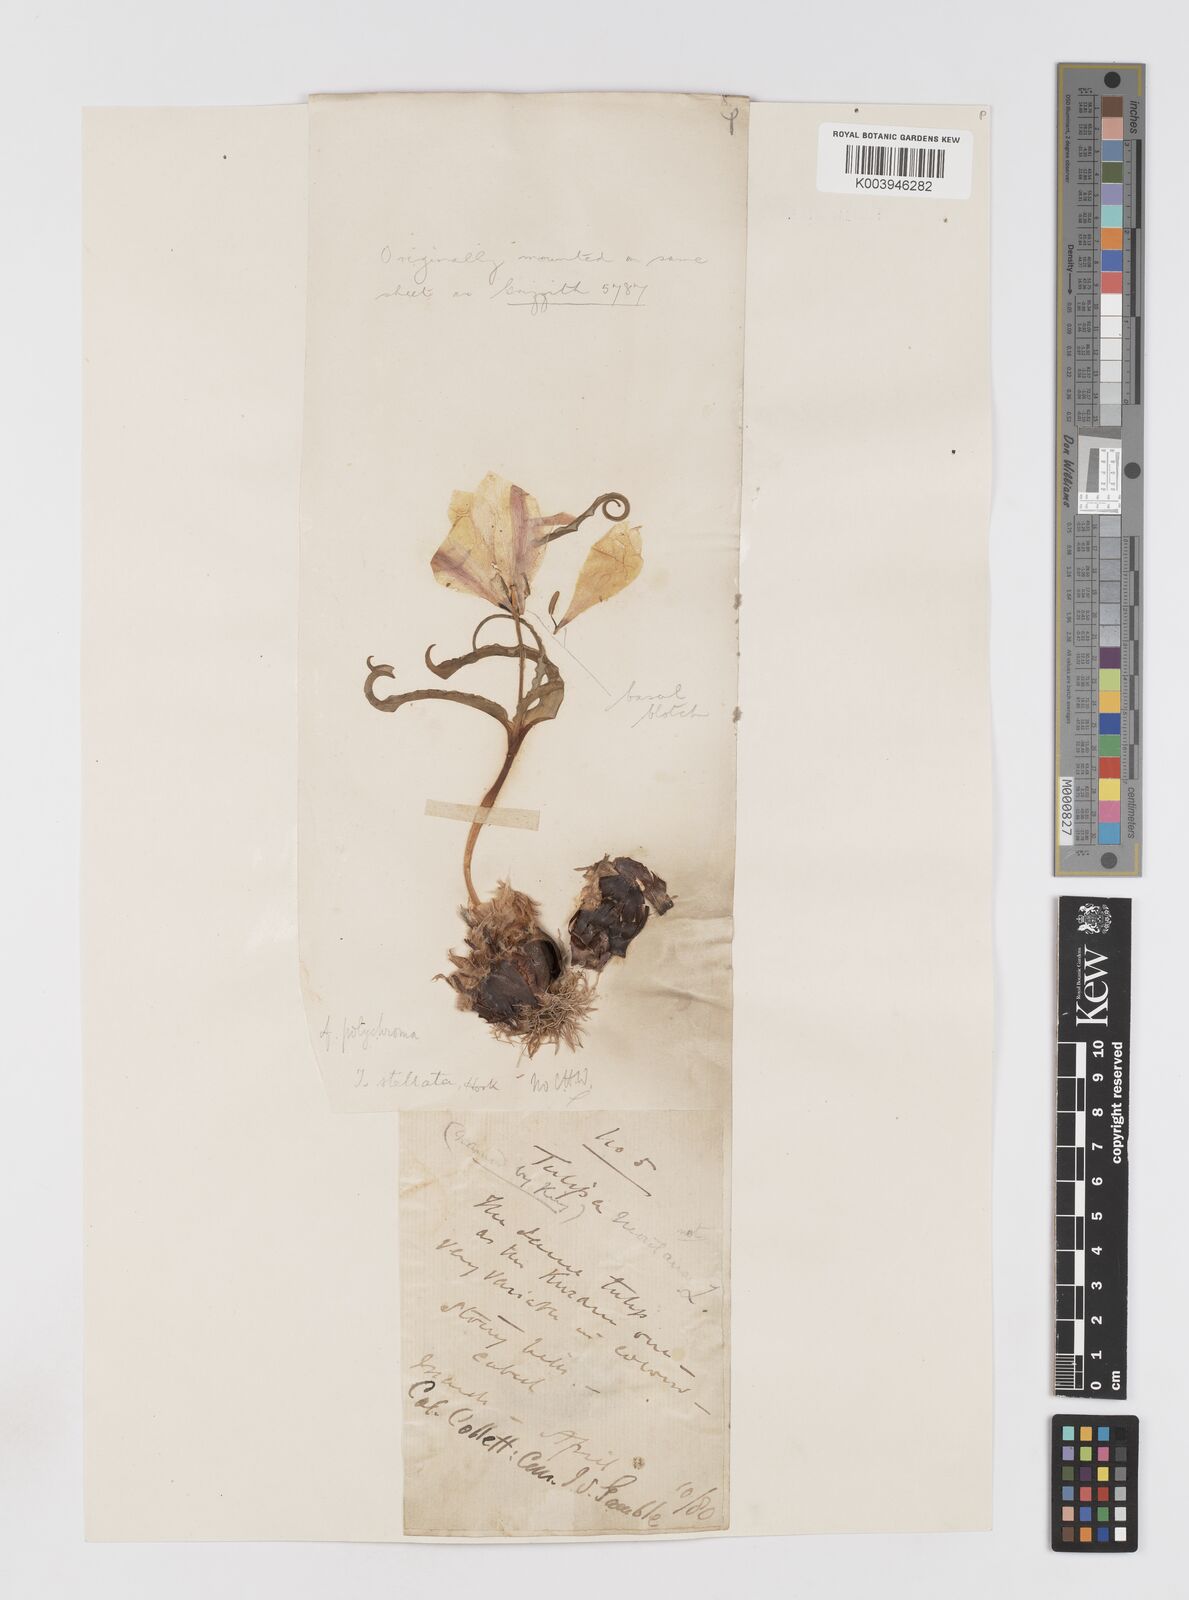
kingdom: Plantae
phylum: Tracheophyta
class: Liliopsida
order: Liliales
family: Liliaceae
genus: Tulipa
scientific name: Tulipa clusiana
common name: Lady tulip
